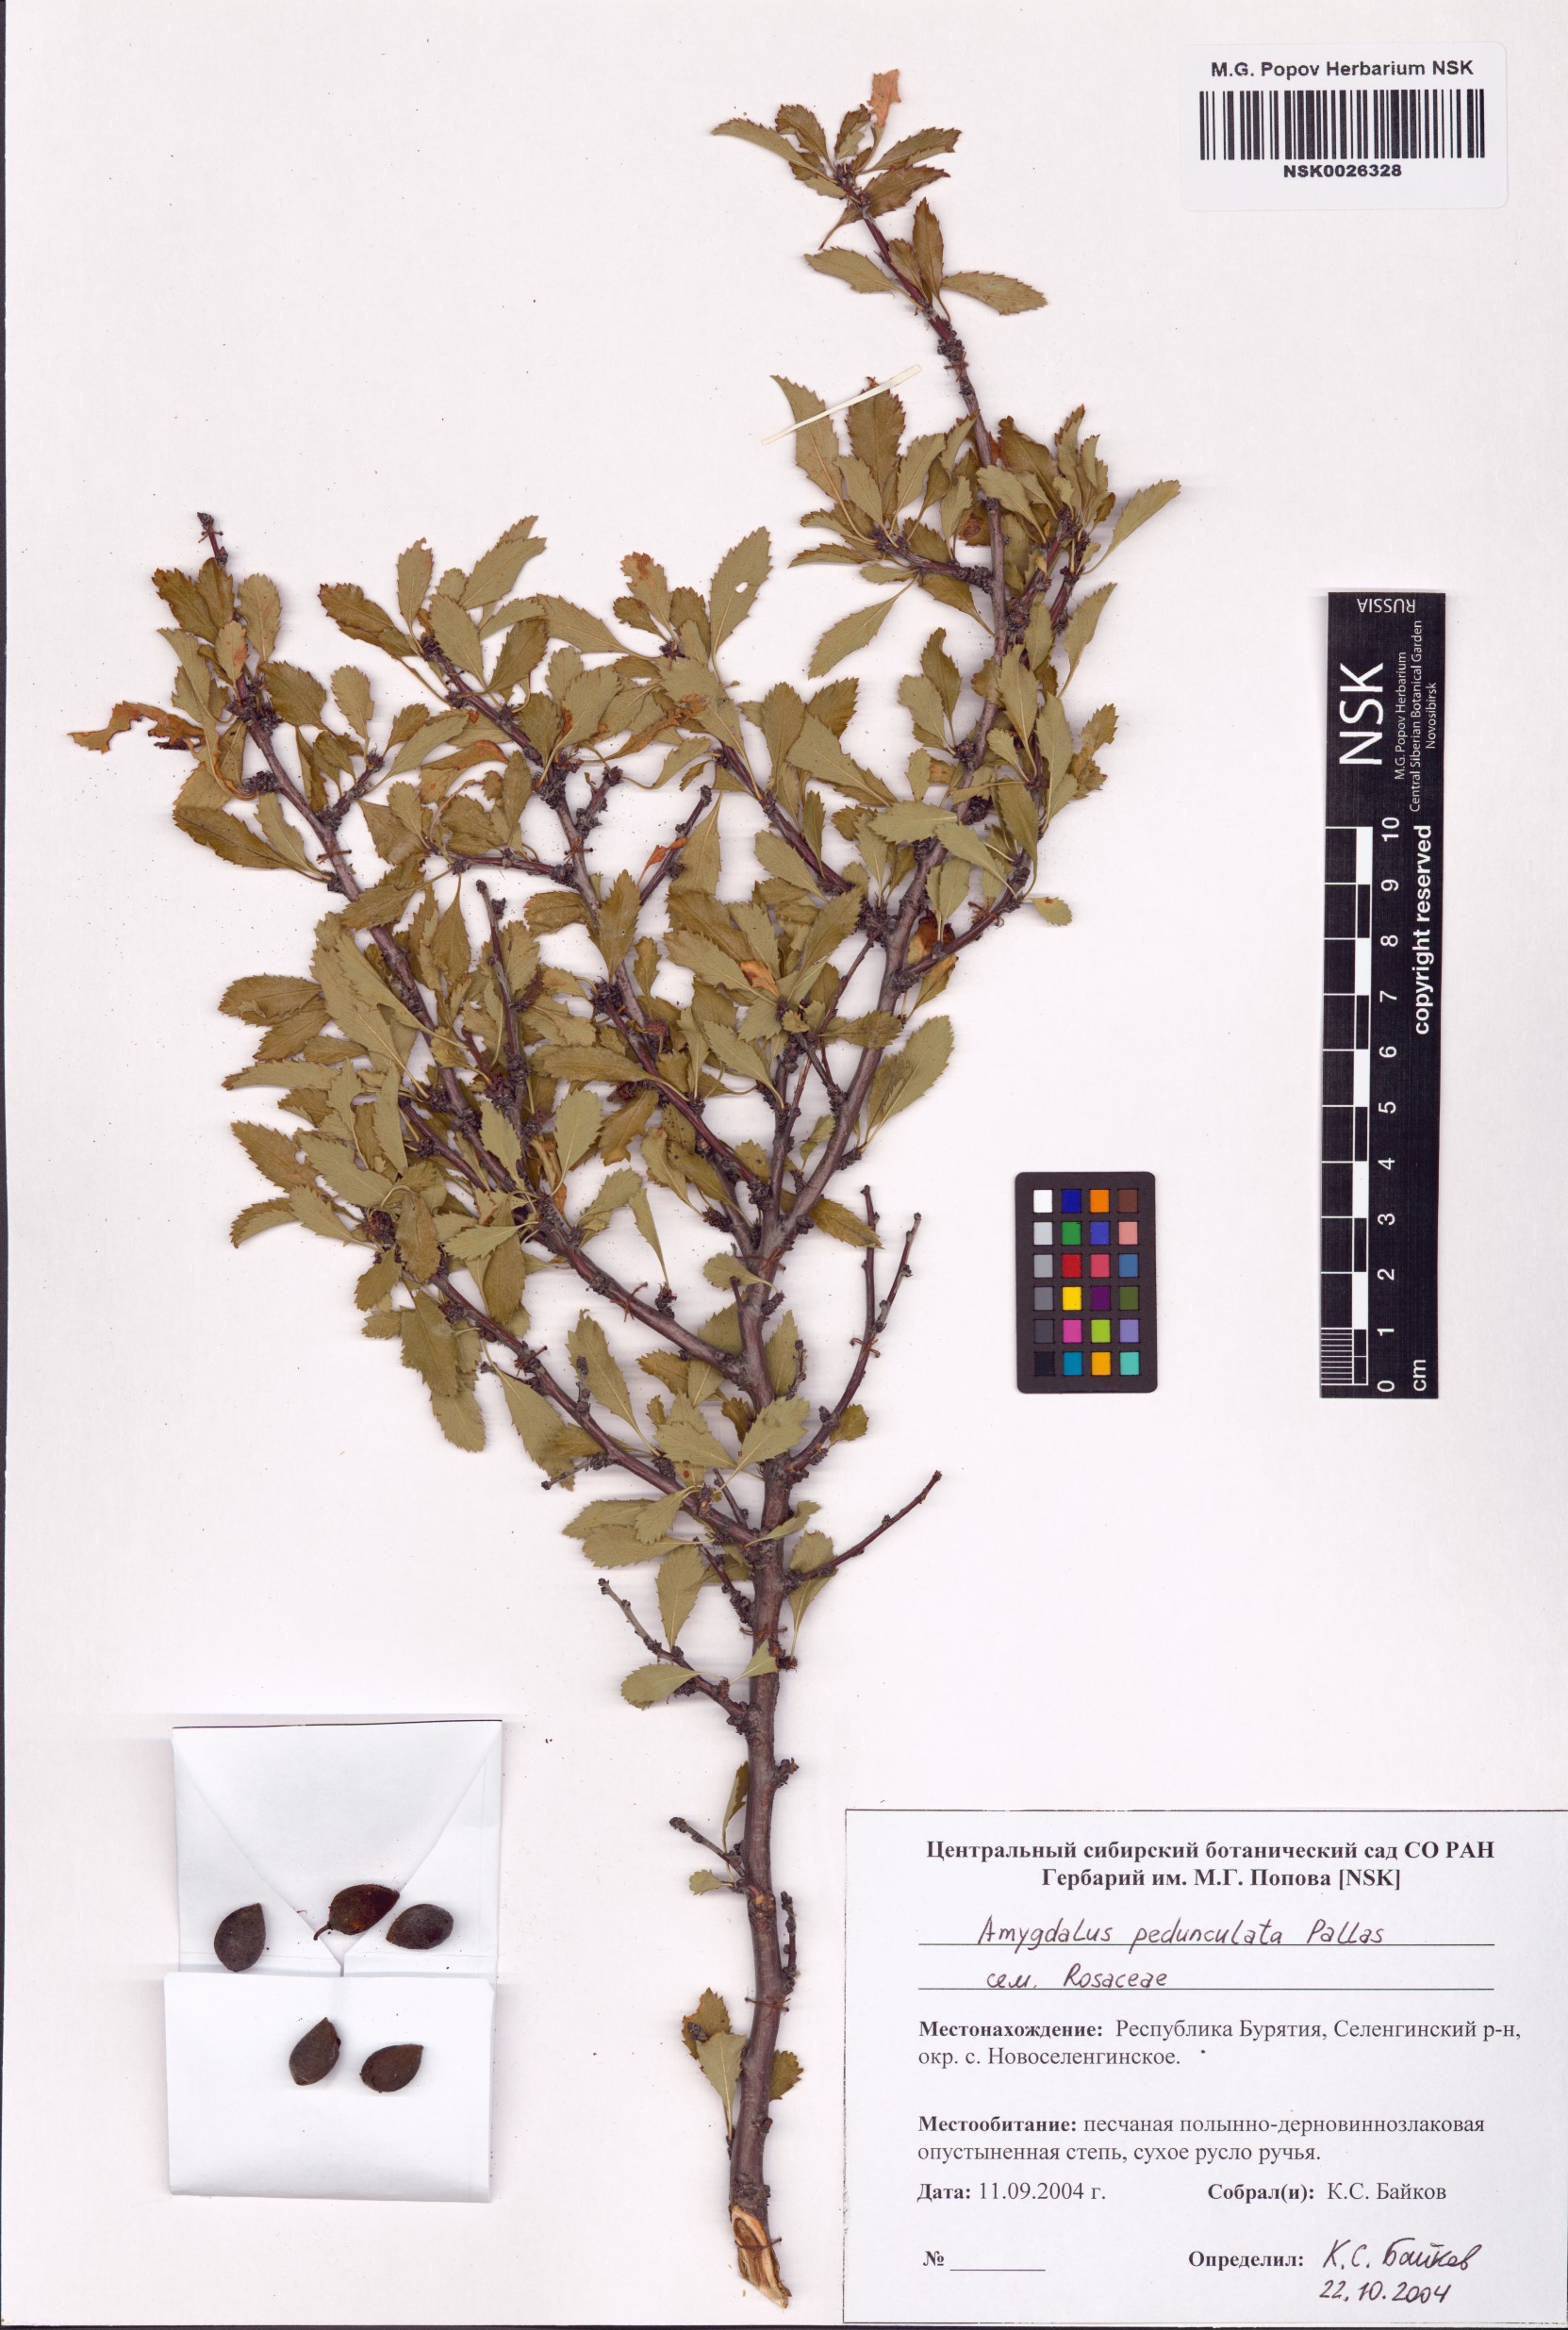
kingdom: Plantae
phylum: Tracheophyta
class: Magnoliopsida
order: Rosales
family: Rosaceae
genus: Prunus
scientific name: Prunus pedunculata
